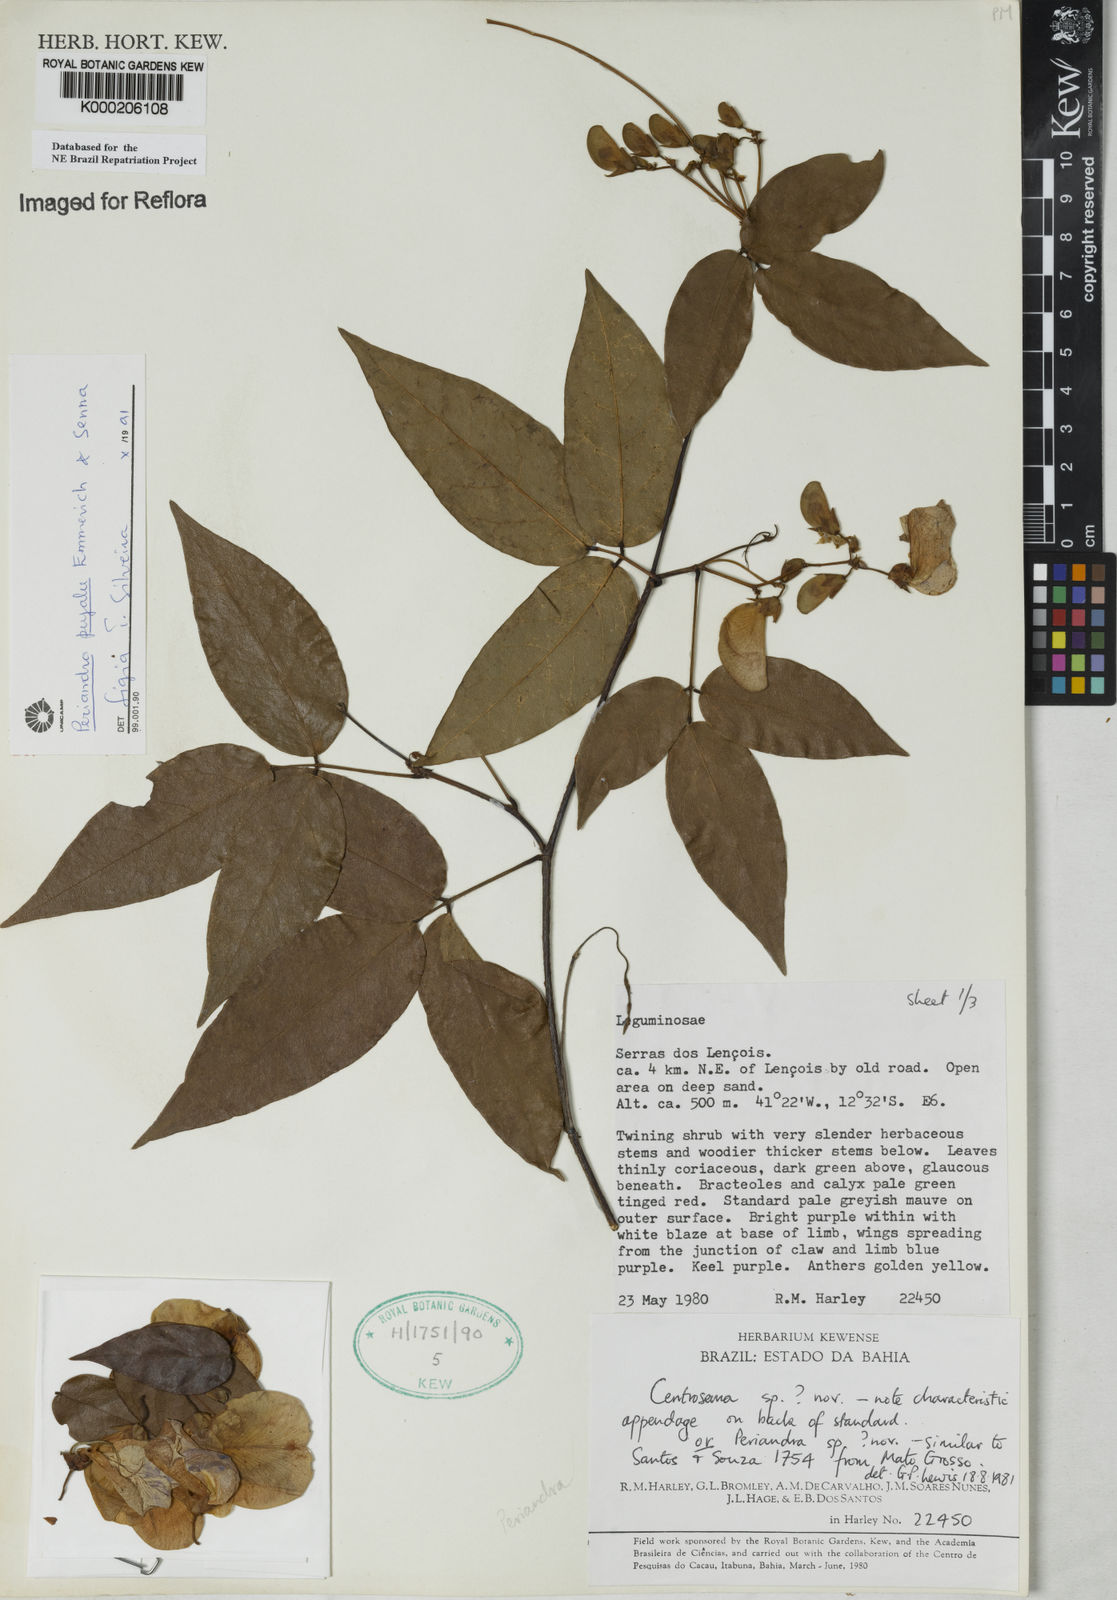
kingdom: Plantae
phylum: Tracheophyta
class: Magnoliopsida
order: Fabales
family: Fabaceae
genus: Periandra
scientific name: Periandra pujalu
